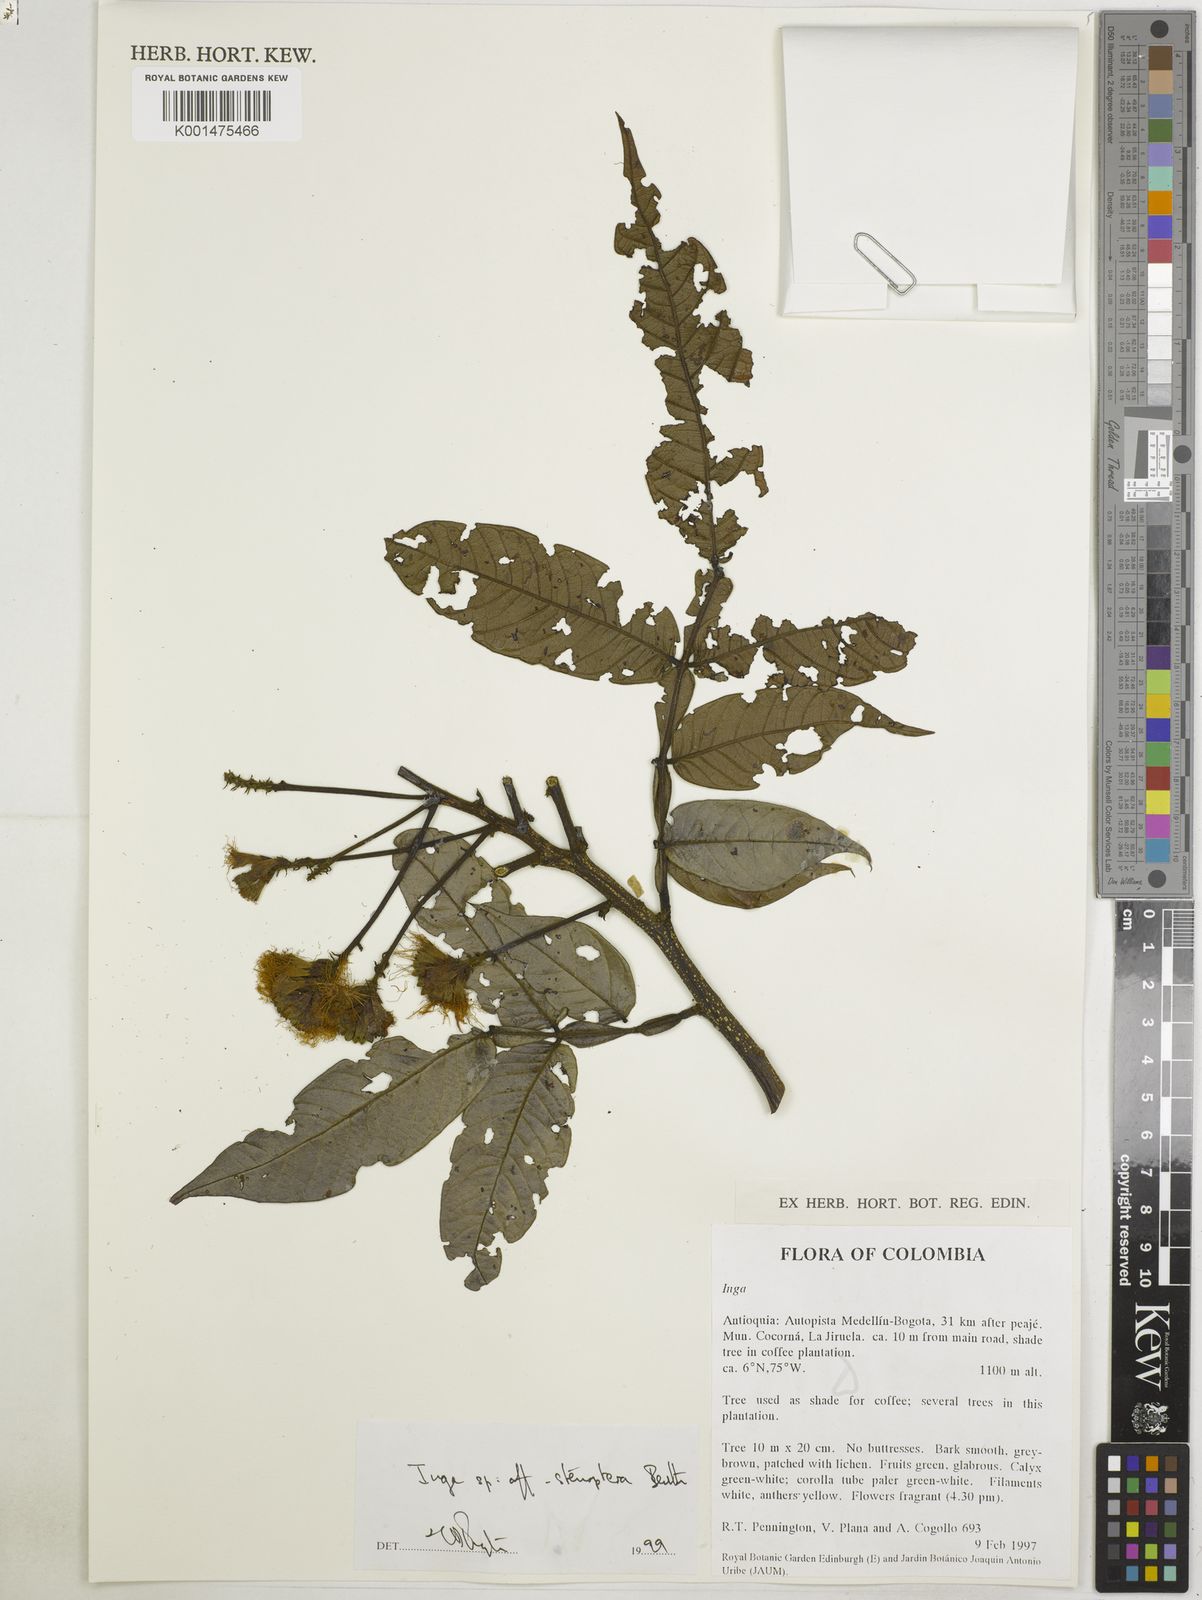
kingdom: Plantae
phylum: Tracheophyta
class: Magnoliopsida
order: Fabales
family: Fabaceae
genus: Inga
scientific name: Inga stenoptera
